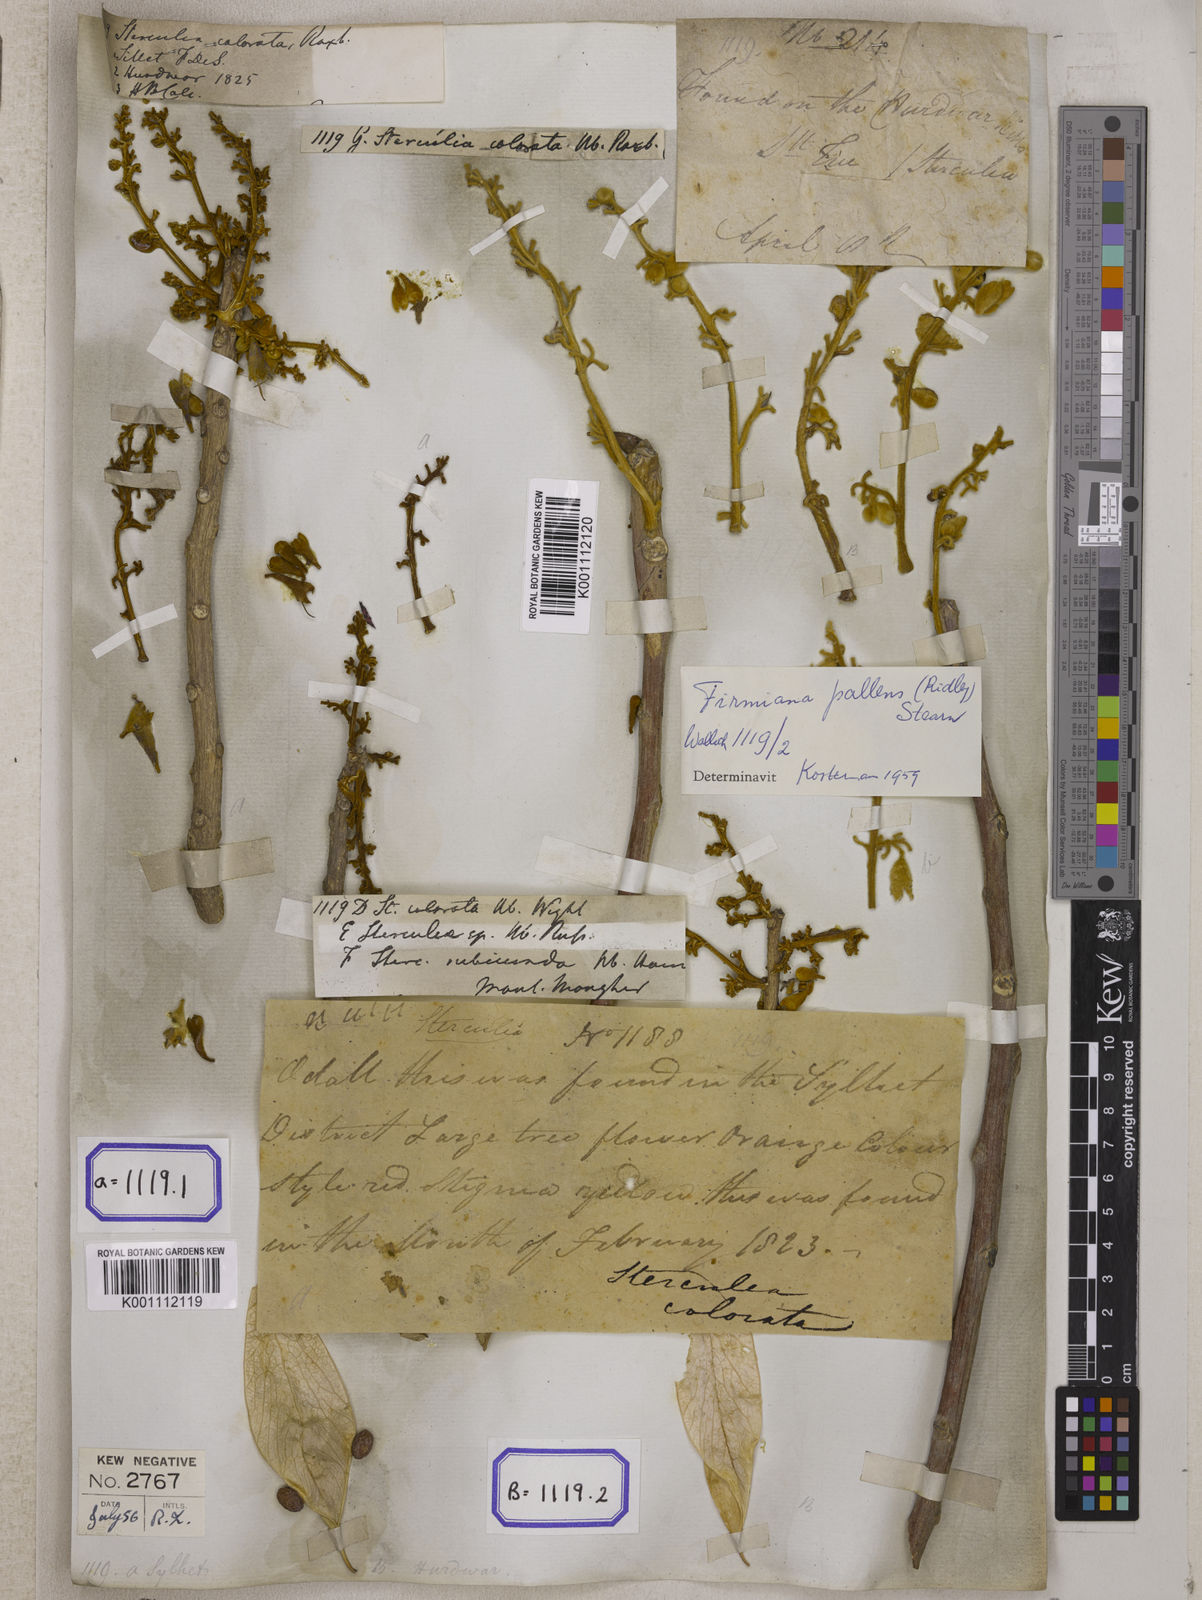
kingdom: Plantae
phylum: Tracheophyta
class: Magnoliopsida
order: Malvales
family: Malvaceae
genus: Firmiana
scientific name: Firmiana colorata
